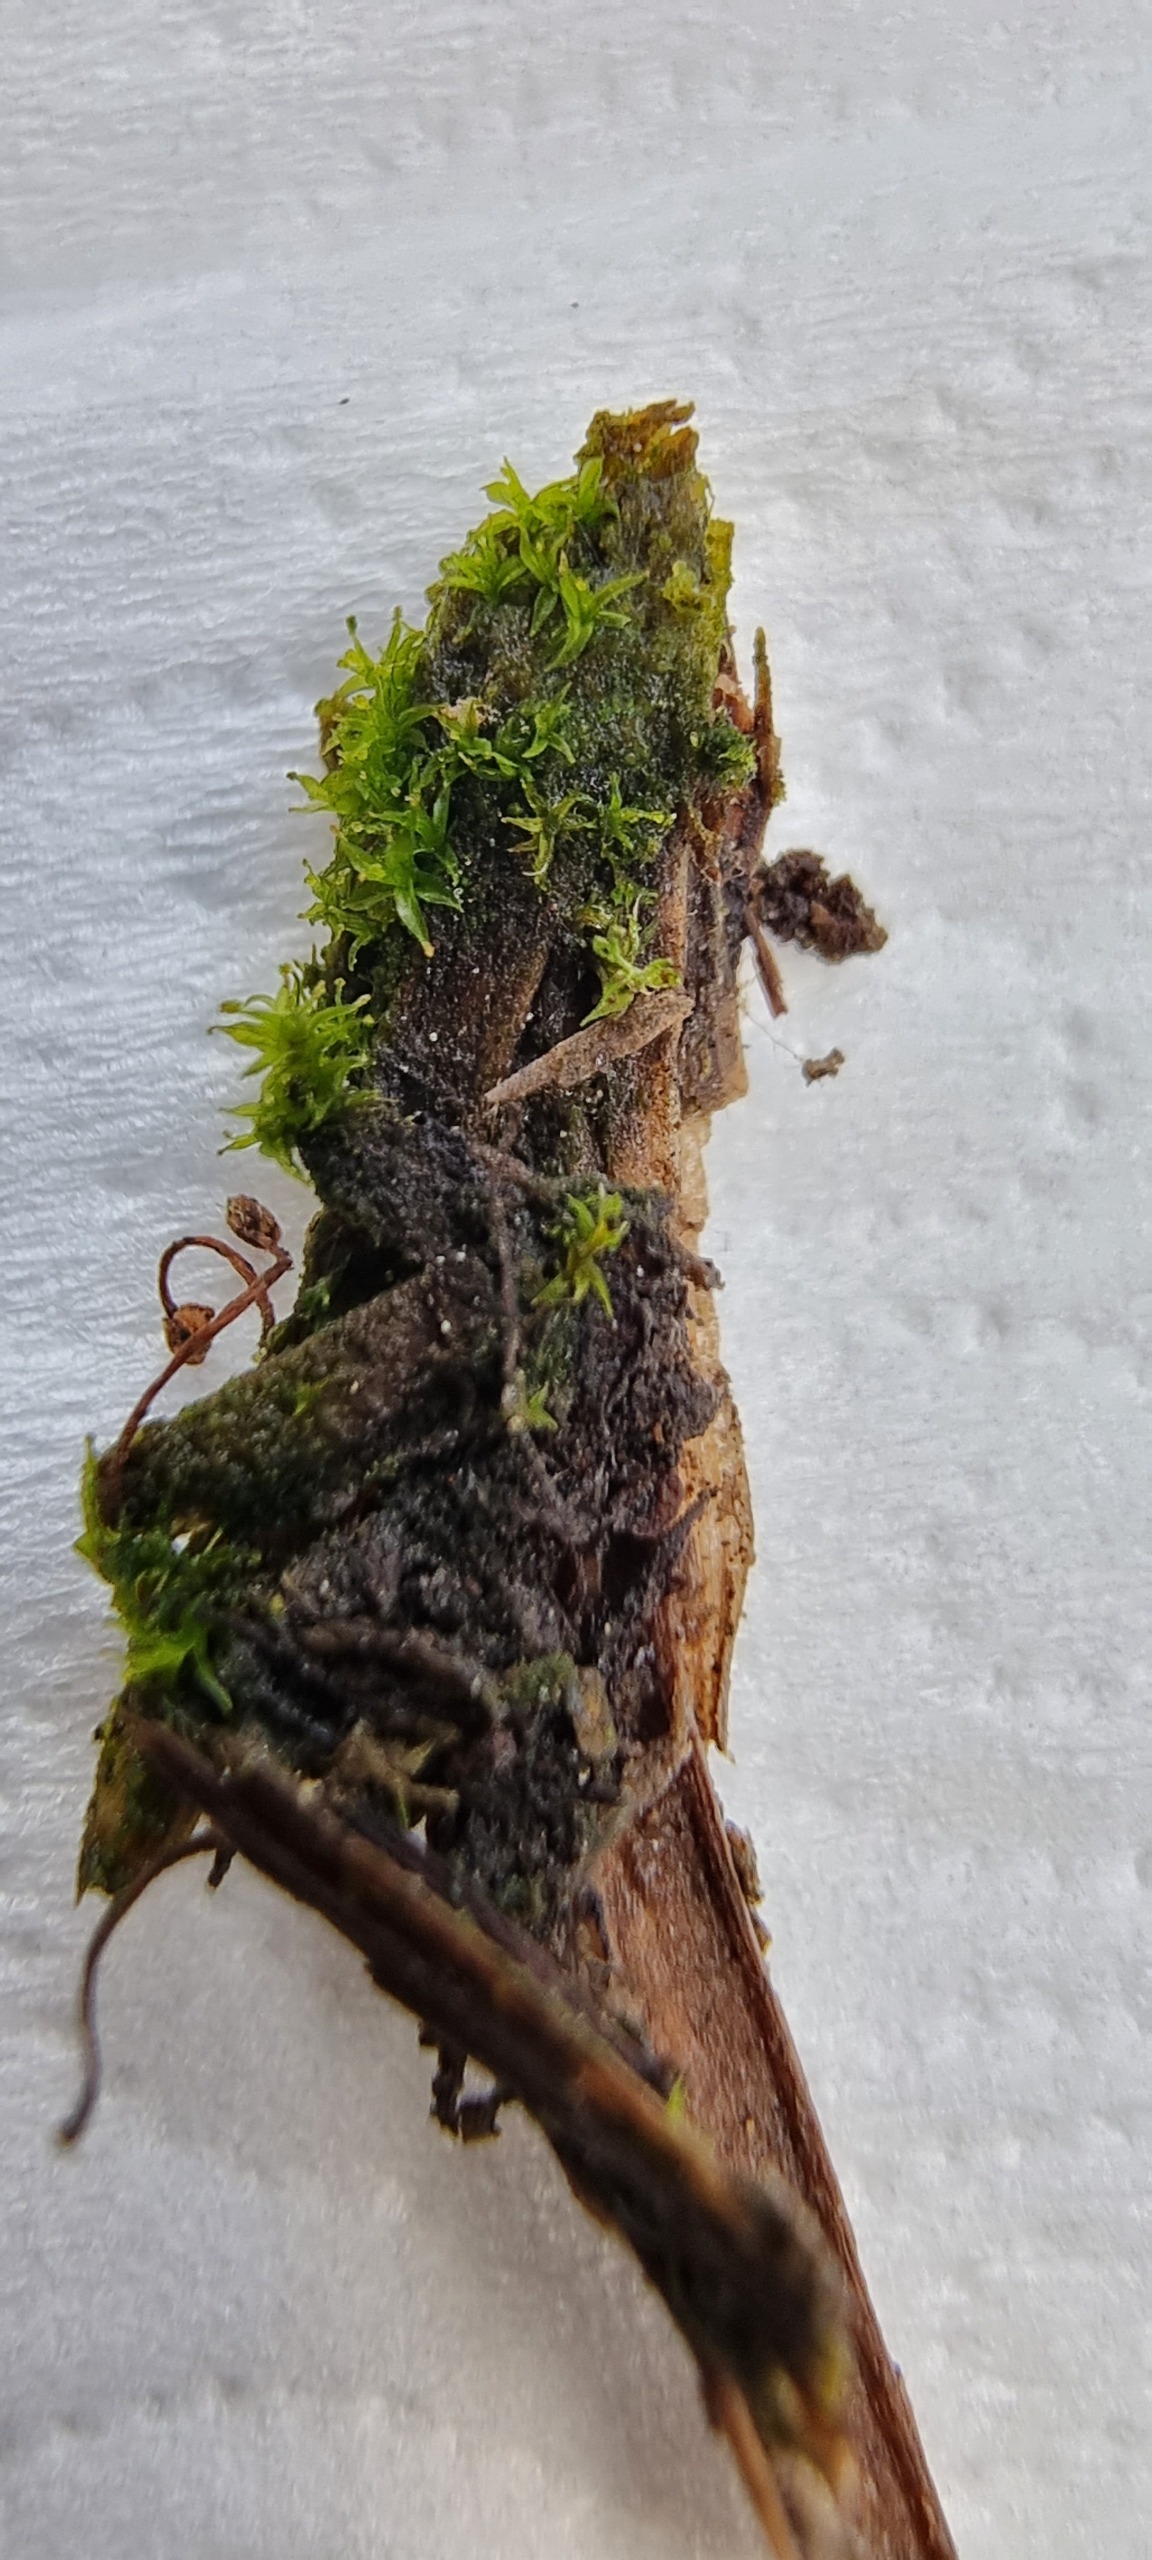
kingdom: Plantae
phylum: Bryophyta
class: Bryopsida
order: Pottiales
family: Pottiaceae
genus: Leptodontium
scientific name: Leptodontium gemmascens
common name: Brod-smaltand
